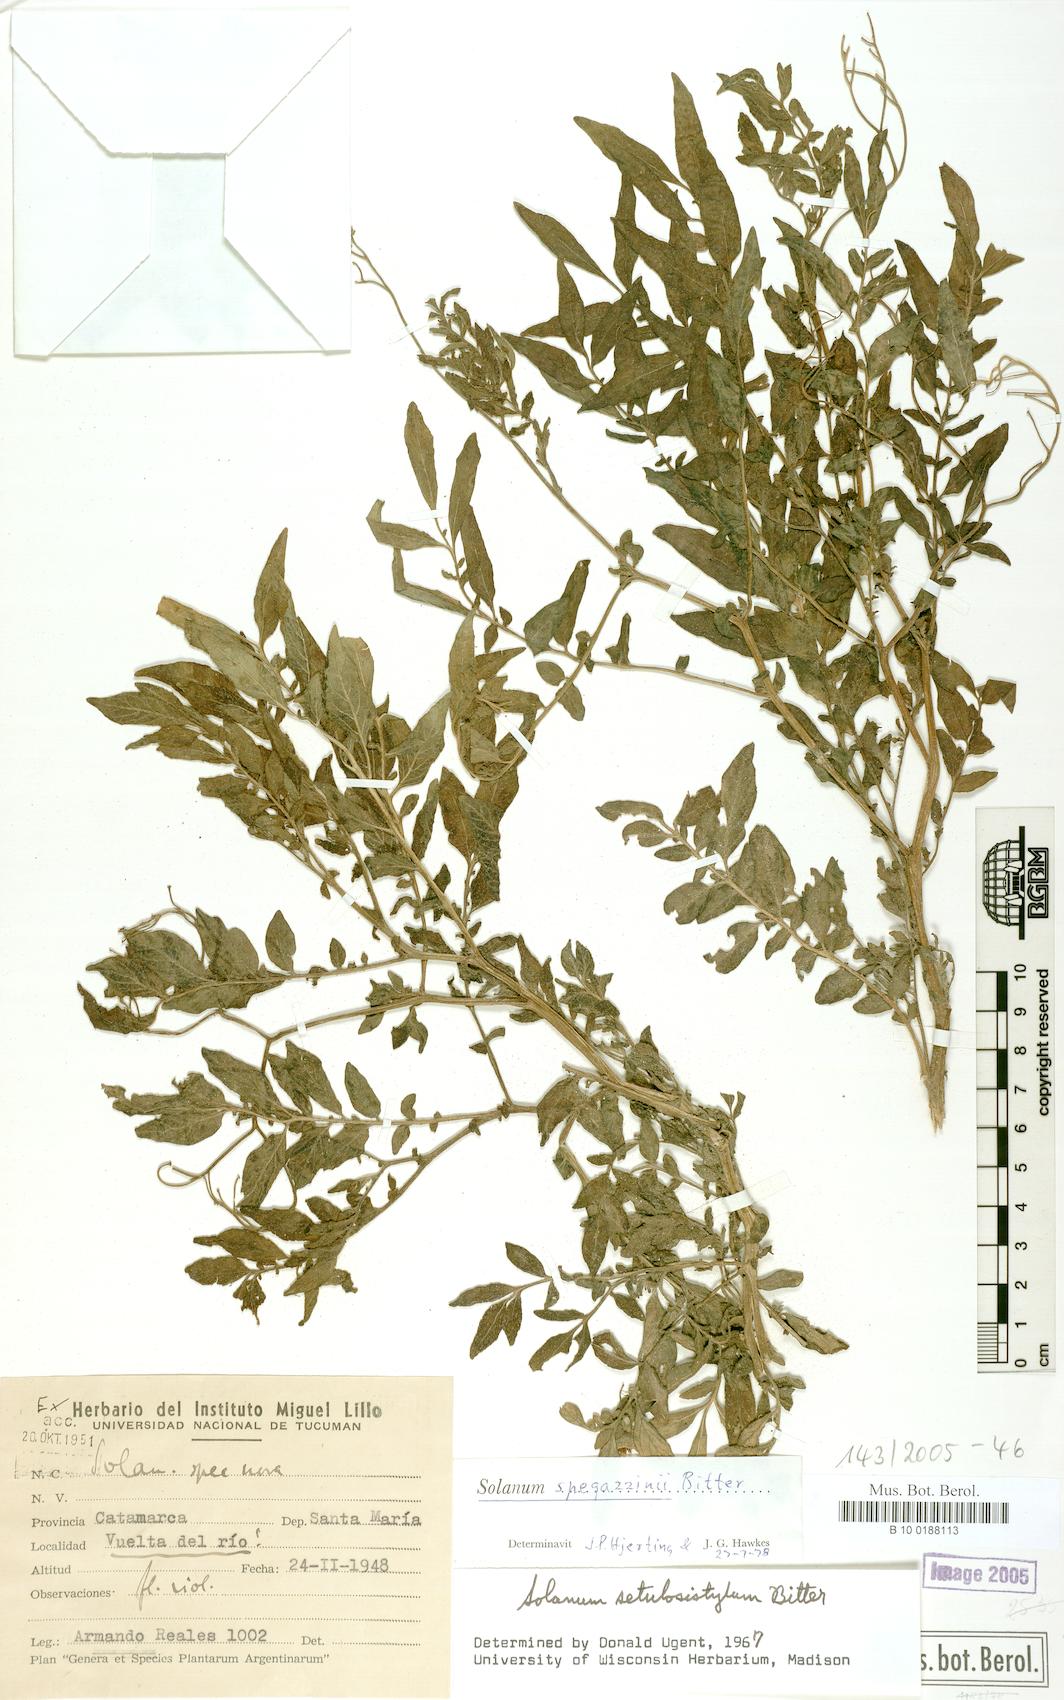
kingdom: Plantae
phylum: Tracheophyta
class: Magnoliopsida
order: Solanales
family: Solanaceae
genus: Solanum
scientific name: Solanum brevicaule
